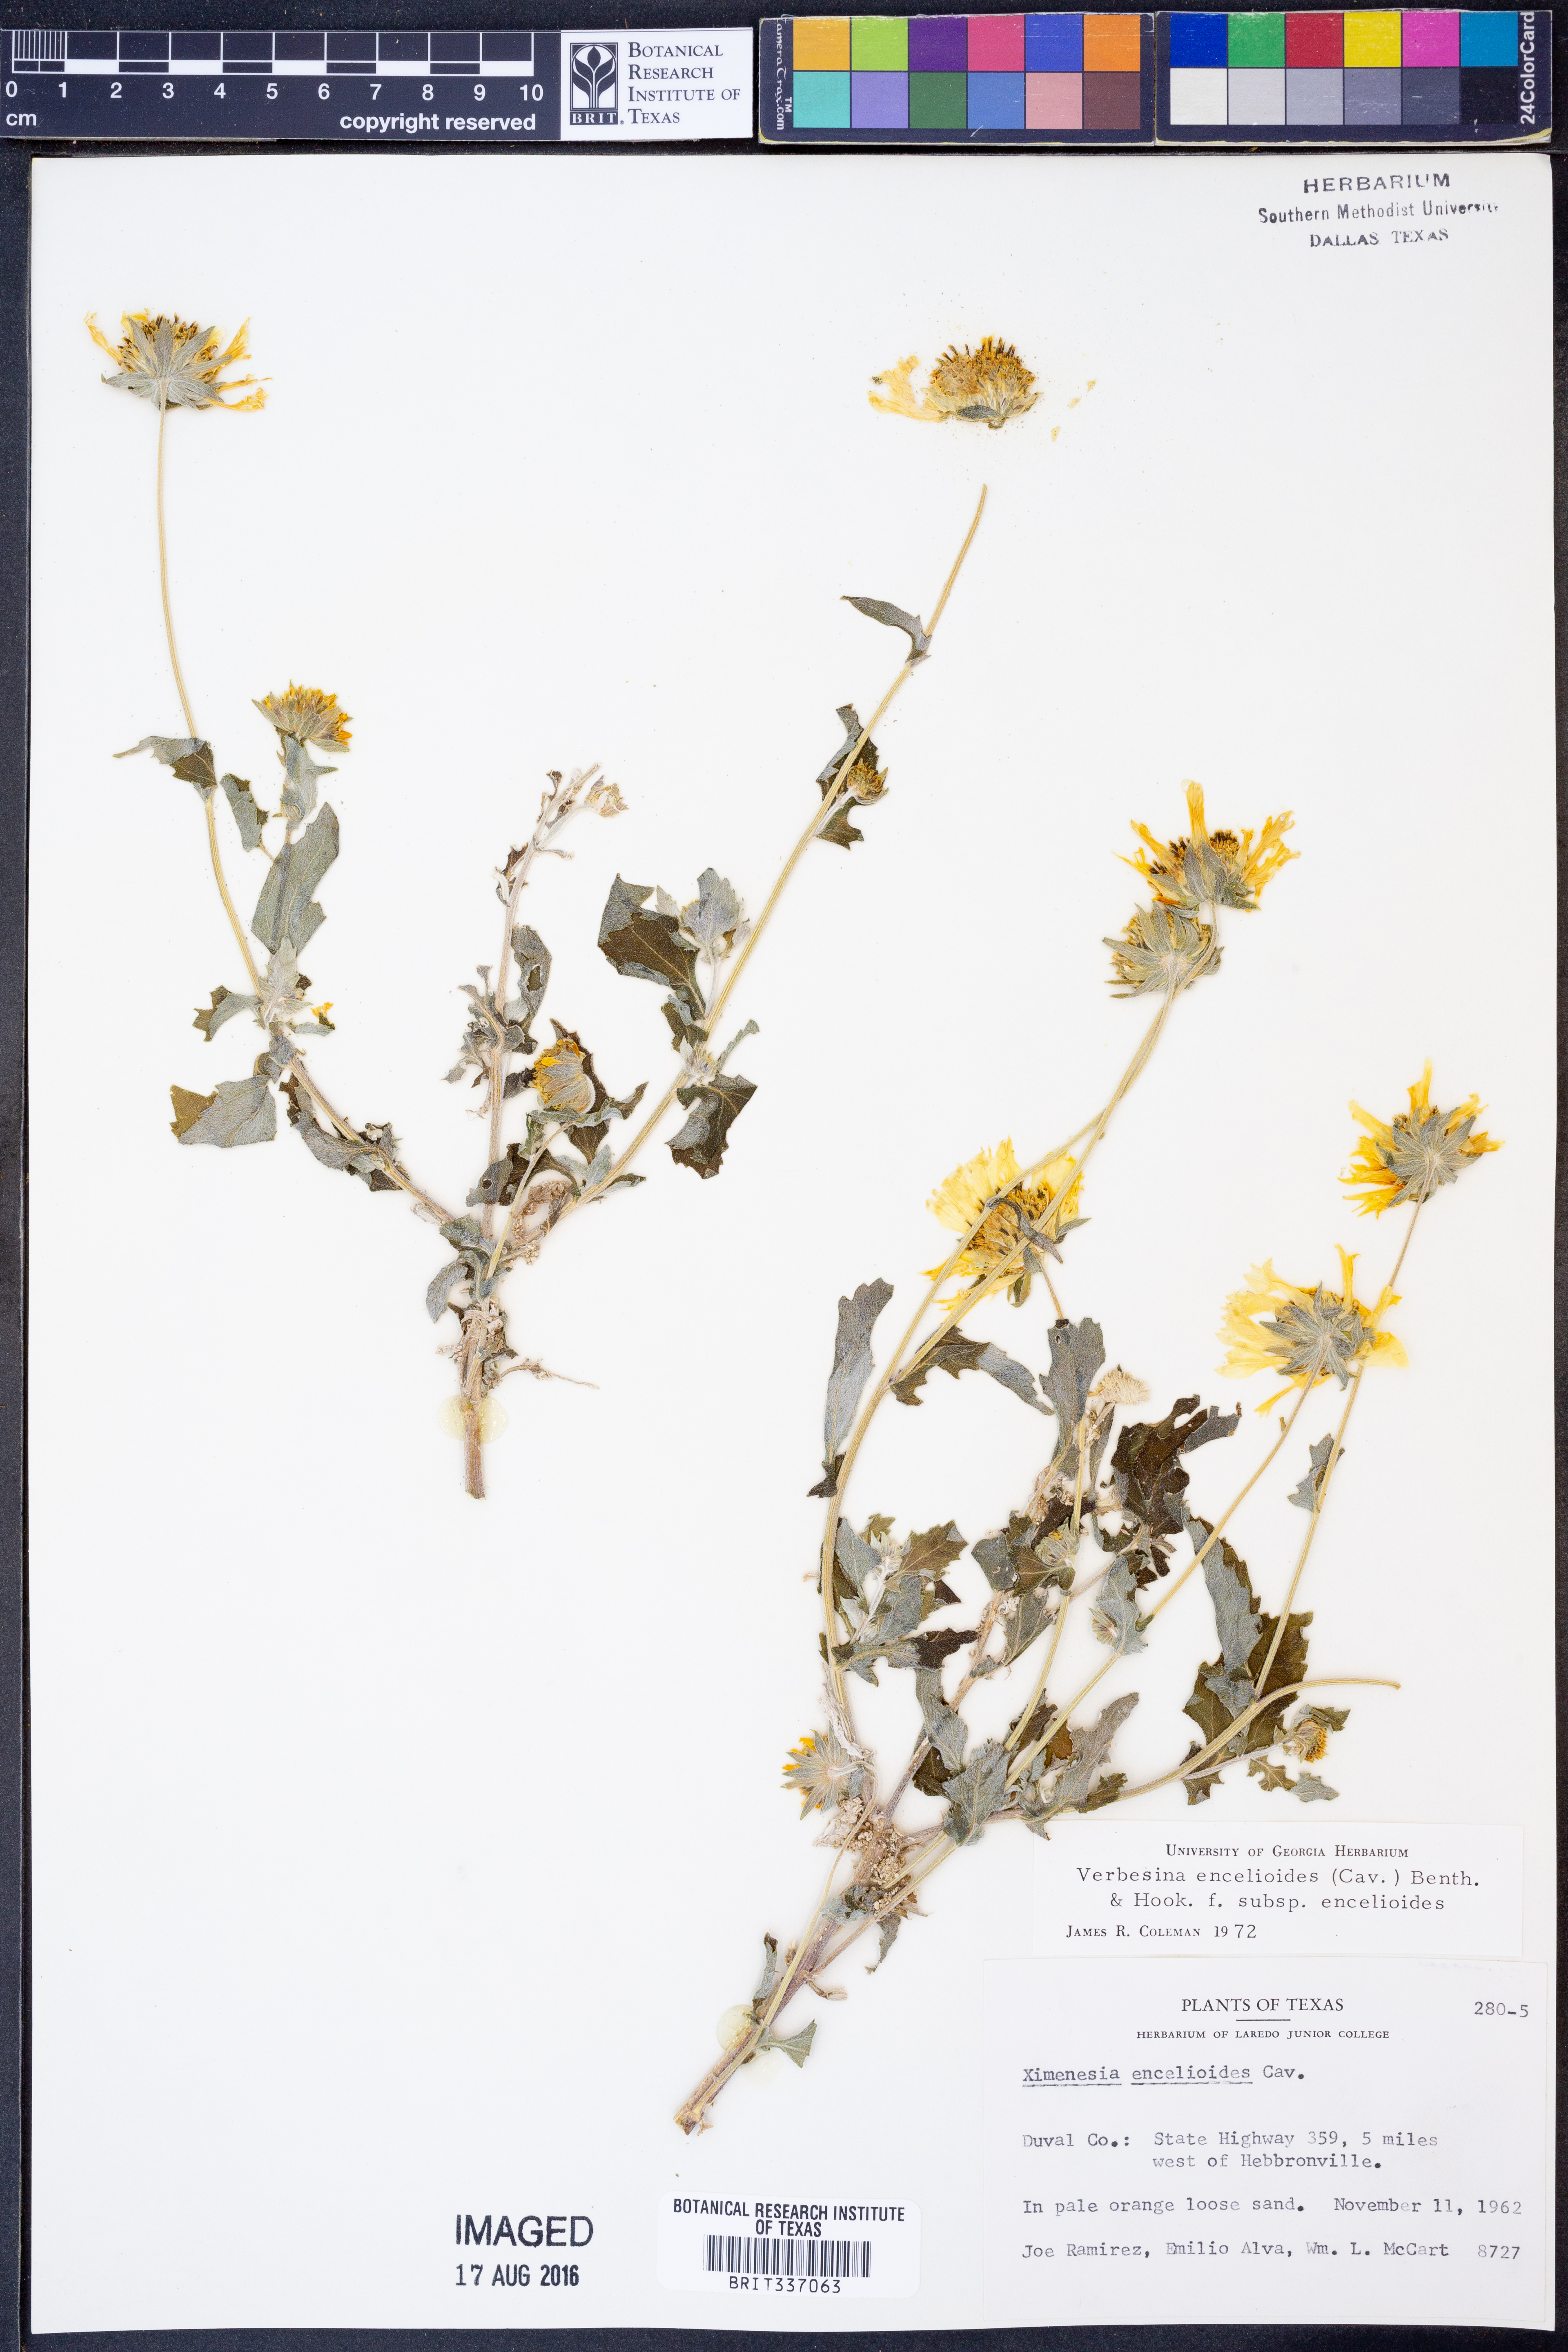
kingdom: Plantae
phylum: Tracheophyta
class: Magnoliopsida
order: Asterales
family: Asteraceae
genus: Verbesina
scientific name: Verbesina encelioides
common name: Golden crownbeard
